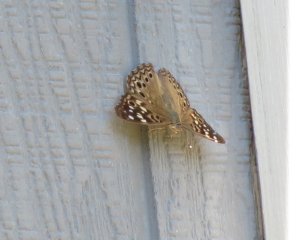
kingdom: Animalia
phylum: Arthropoda
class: Insecta
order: Lepidoptera
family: Nymphalidae
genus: Asterocampa
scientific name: Asterocampa celtis
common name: Hackberry Emperor
